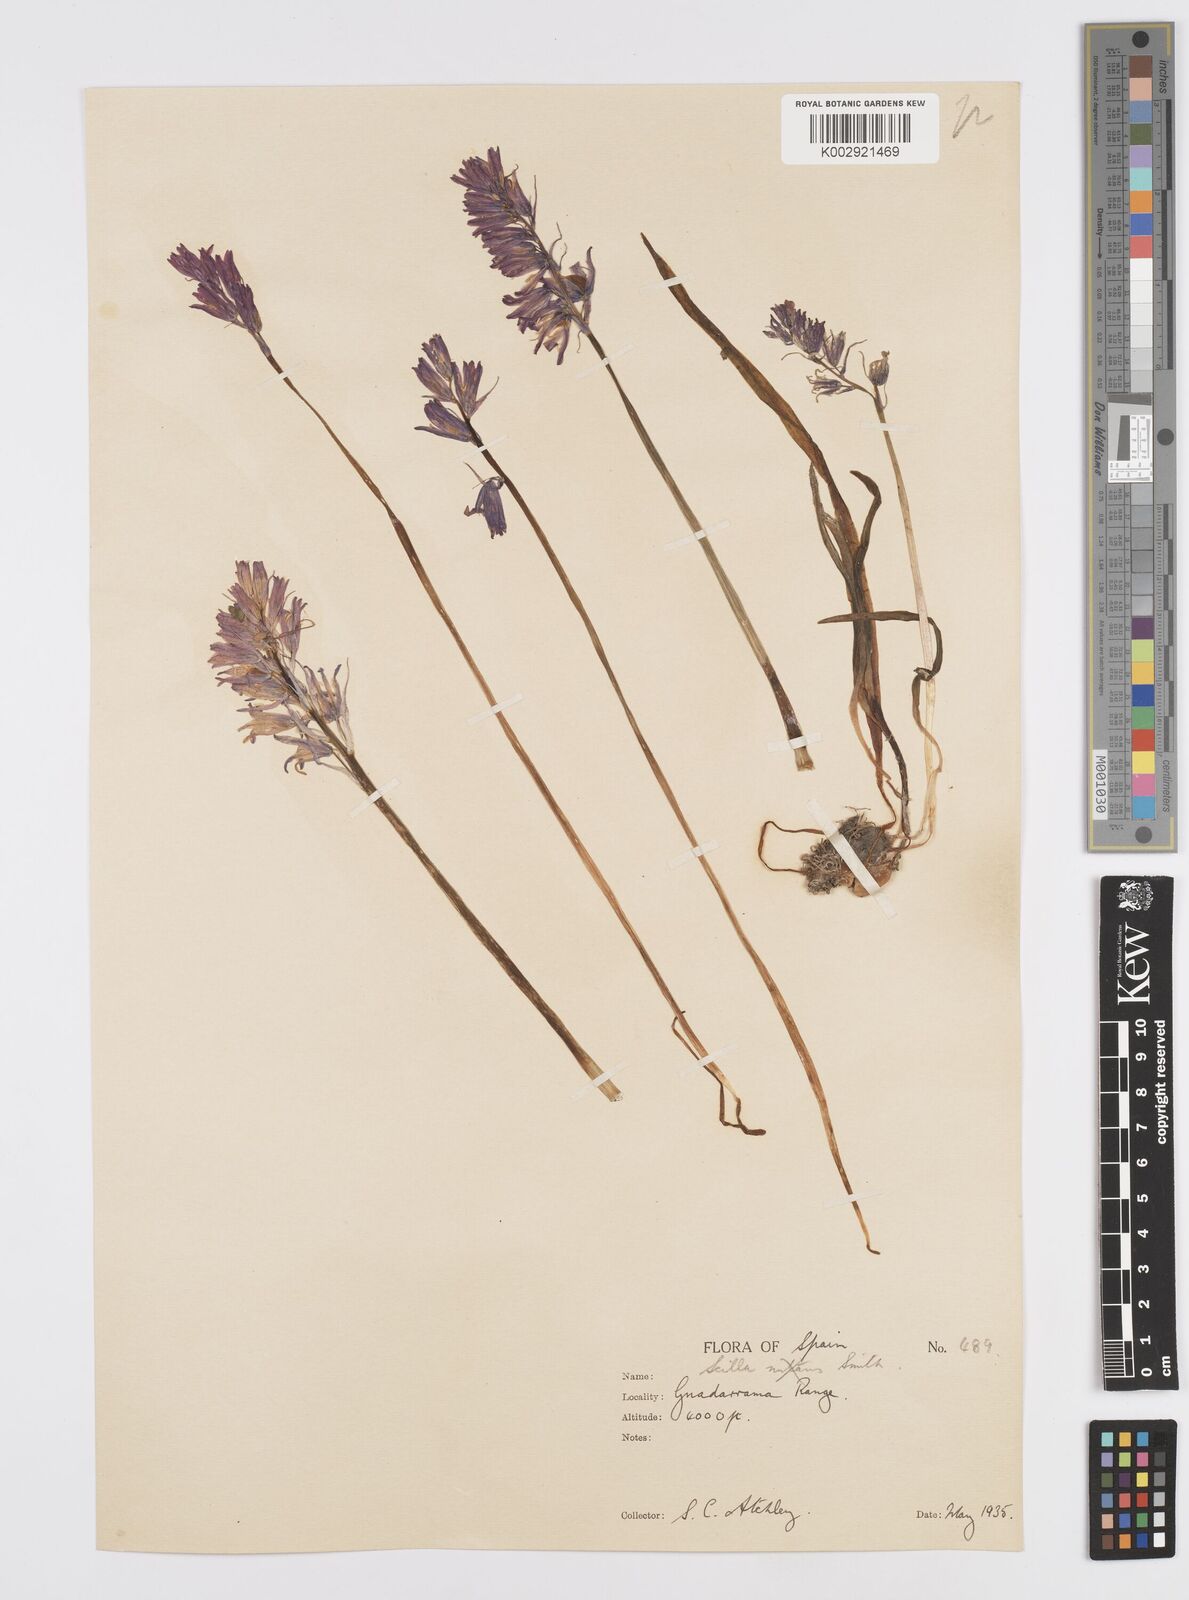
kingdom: Plantae
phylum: Tracheophyta
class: Liliopsida
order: Asparagales
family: Asparagaceae
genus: Hyacinthoides
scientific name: Hyacinthoides hispanica
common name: Spanish bluebell
